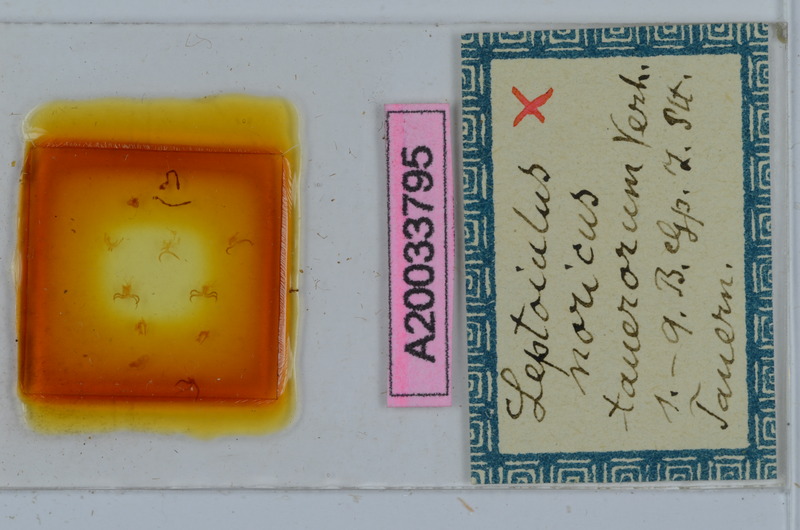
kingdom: Animalia
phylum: Arthropoda
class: Diplopoda
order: Julida
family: Julidae
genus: Leptoiulus
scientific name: Leptoiulus noricus
